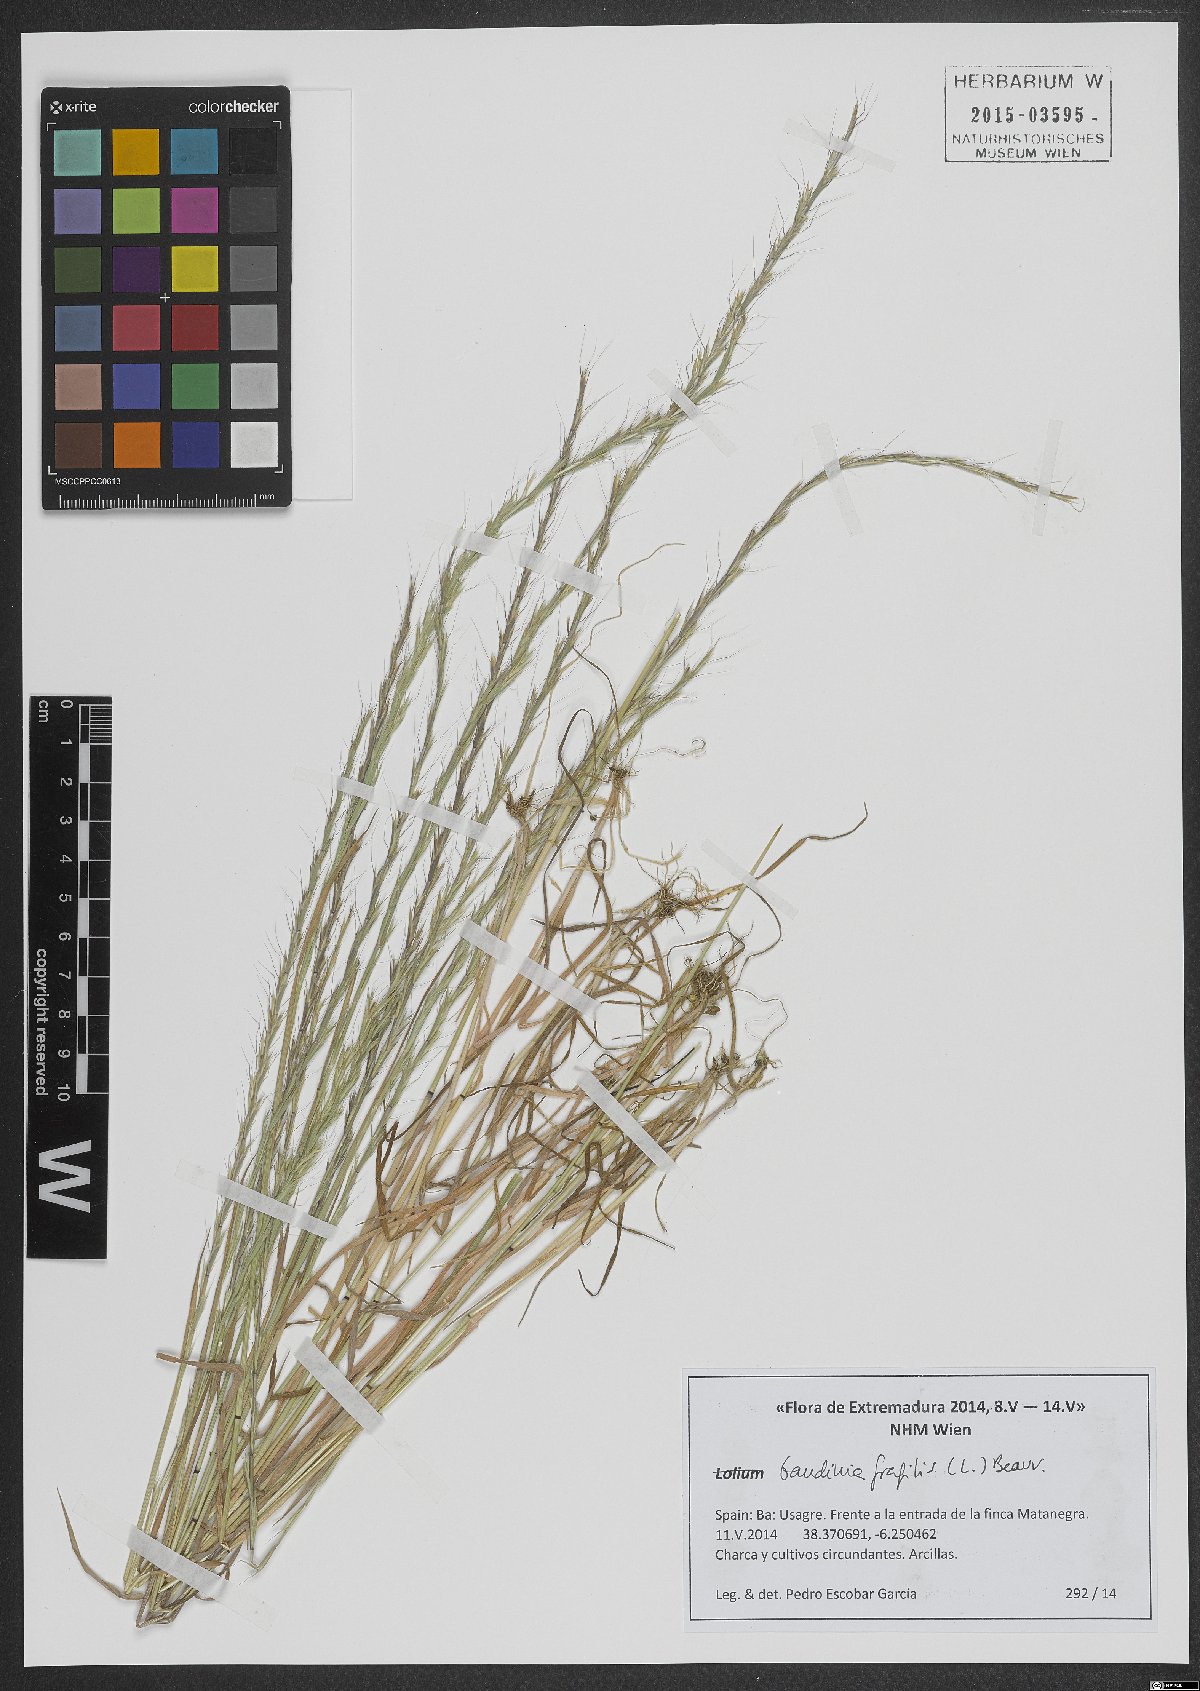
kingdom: Plantae
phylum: Tracheophyta
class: Liliopsida
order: Poales
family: Poaceae
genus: Gaudinia
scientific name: Gaudinia fragilis
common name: French oat-grass
